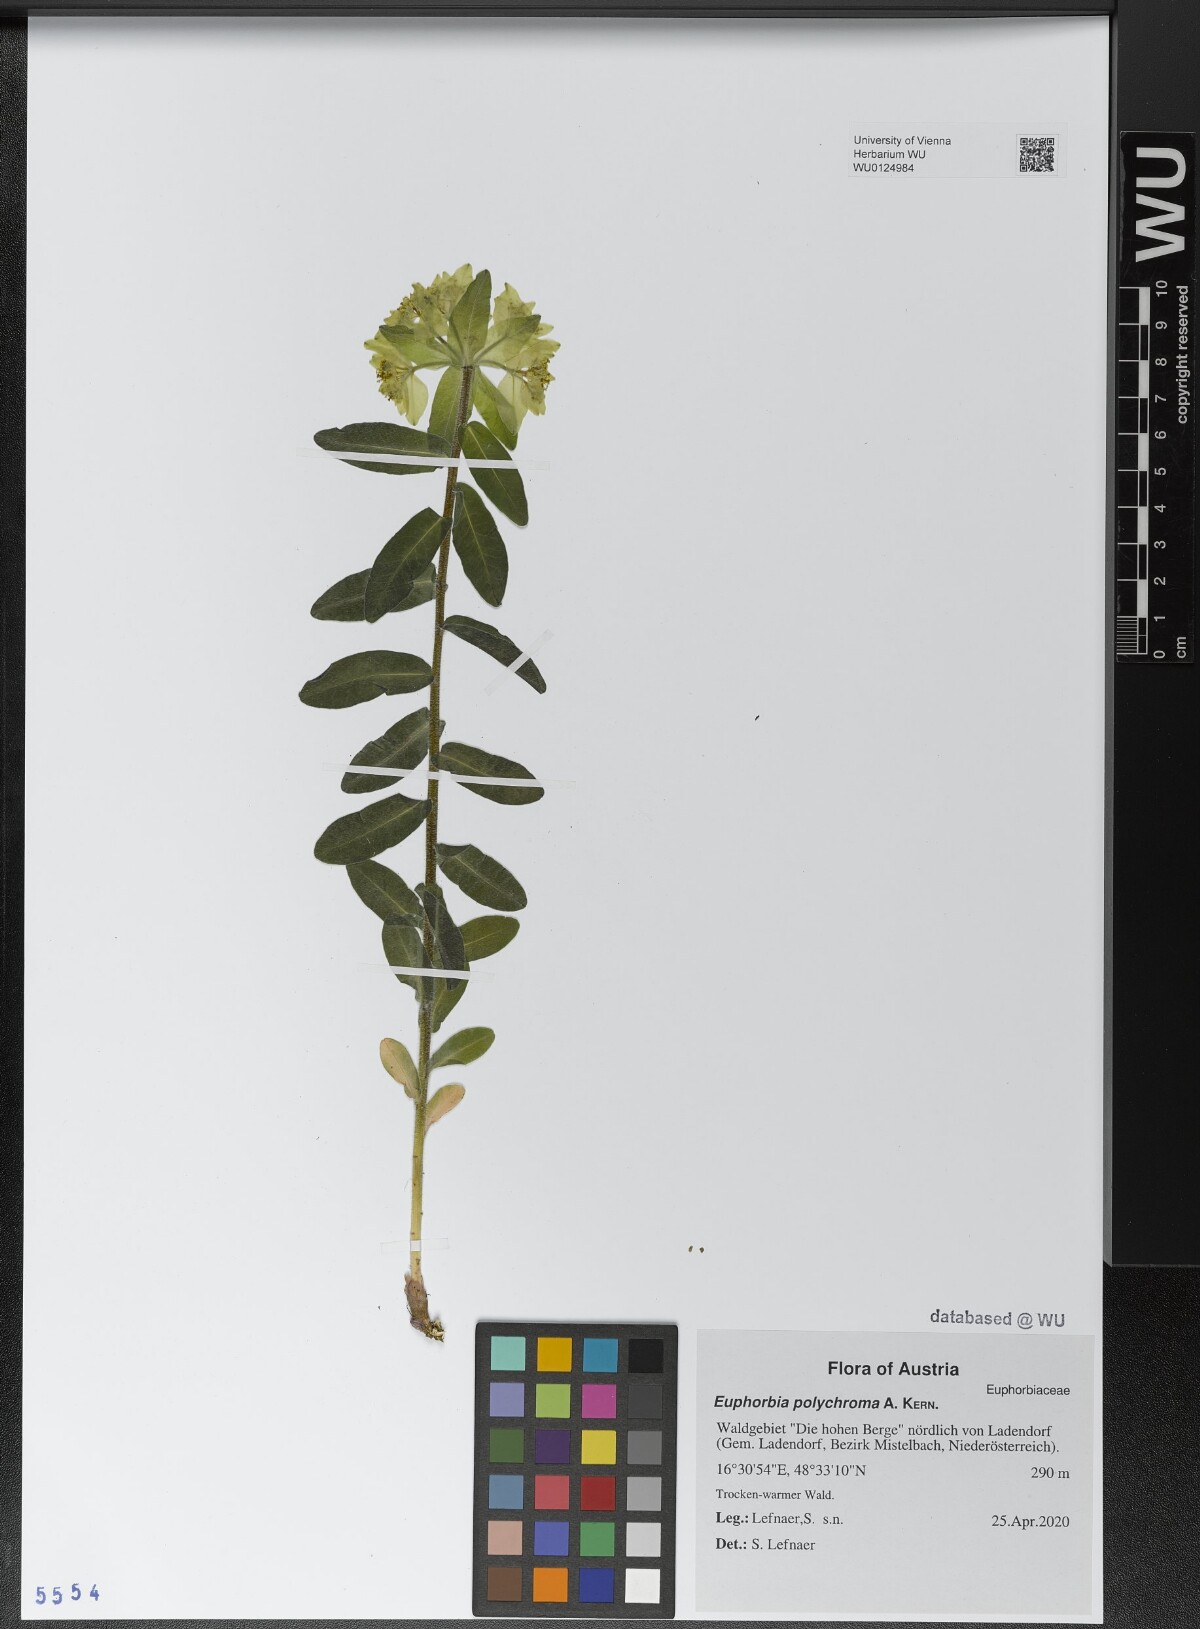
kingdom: Plantae
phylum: Tracheophyta
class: Magnoliopsida
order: Malpighiales
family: Euphorbiaceae
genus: Euphorbia
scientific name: Euphorbia epithymoides
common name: Cushion spurge
